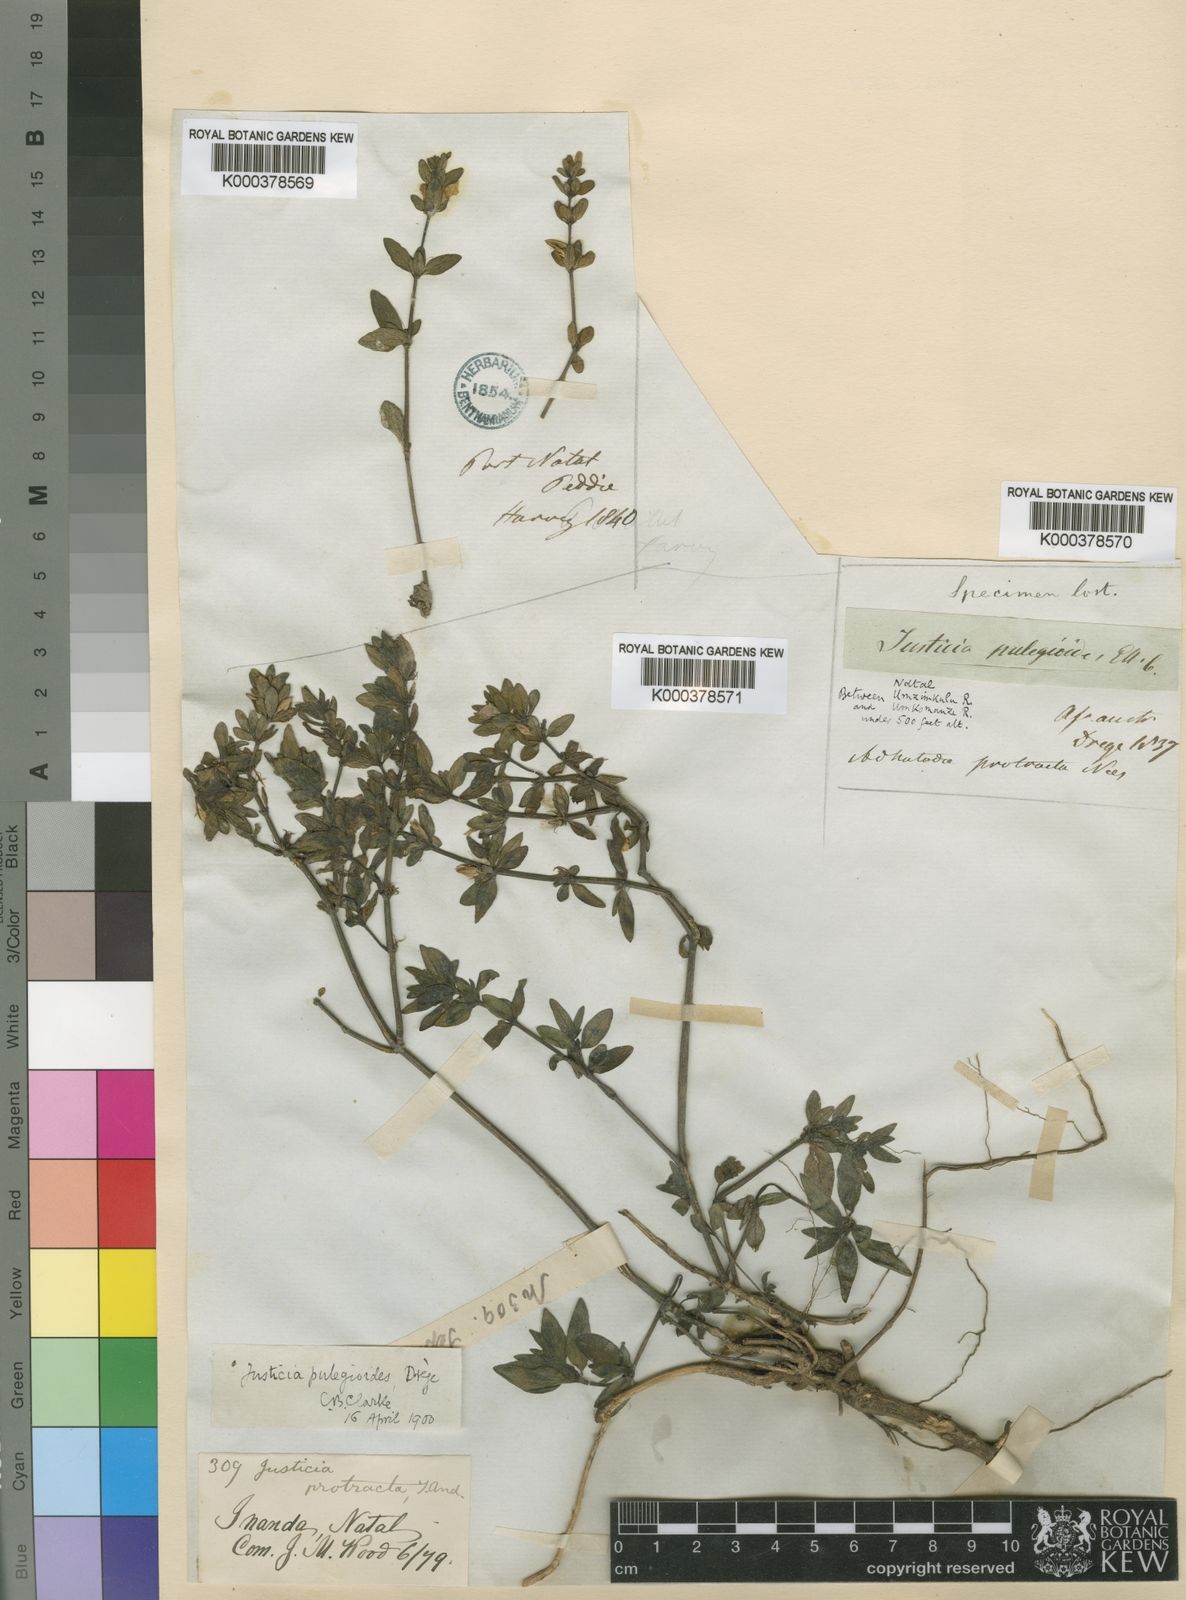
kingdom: Plantae
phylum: Tracheophyta
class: Magnoliopsida
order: Lamiales
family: Acanthaceae
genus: Justicia
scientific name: Justicia protracta
